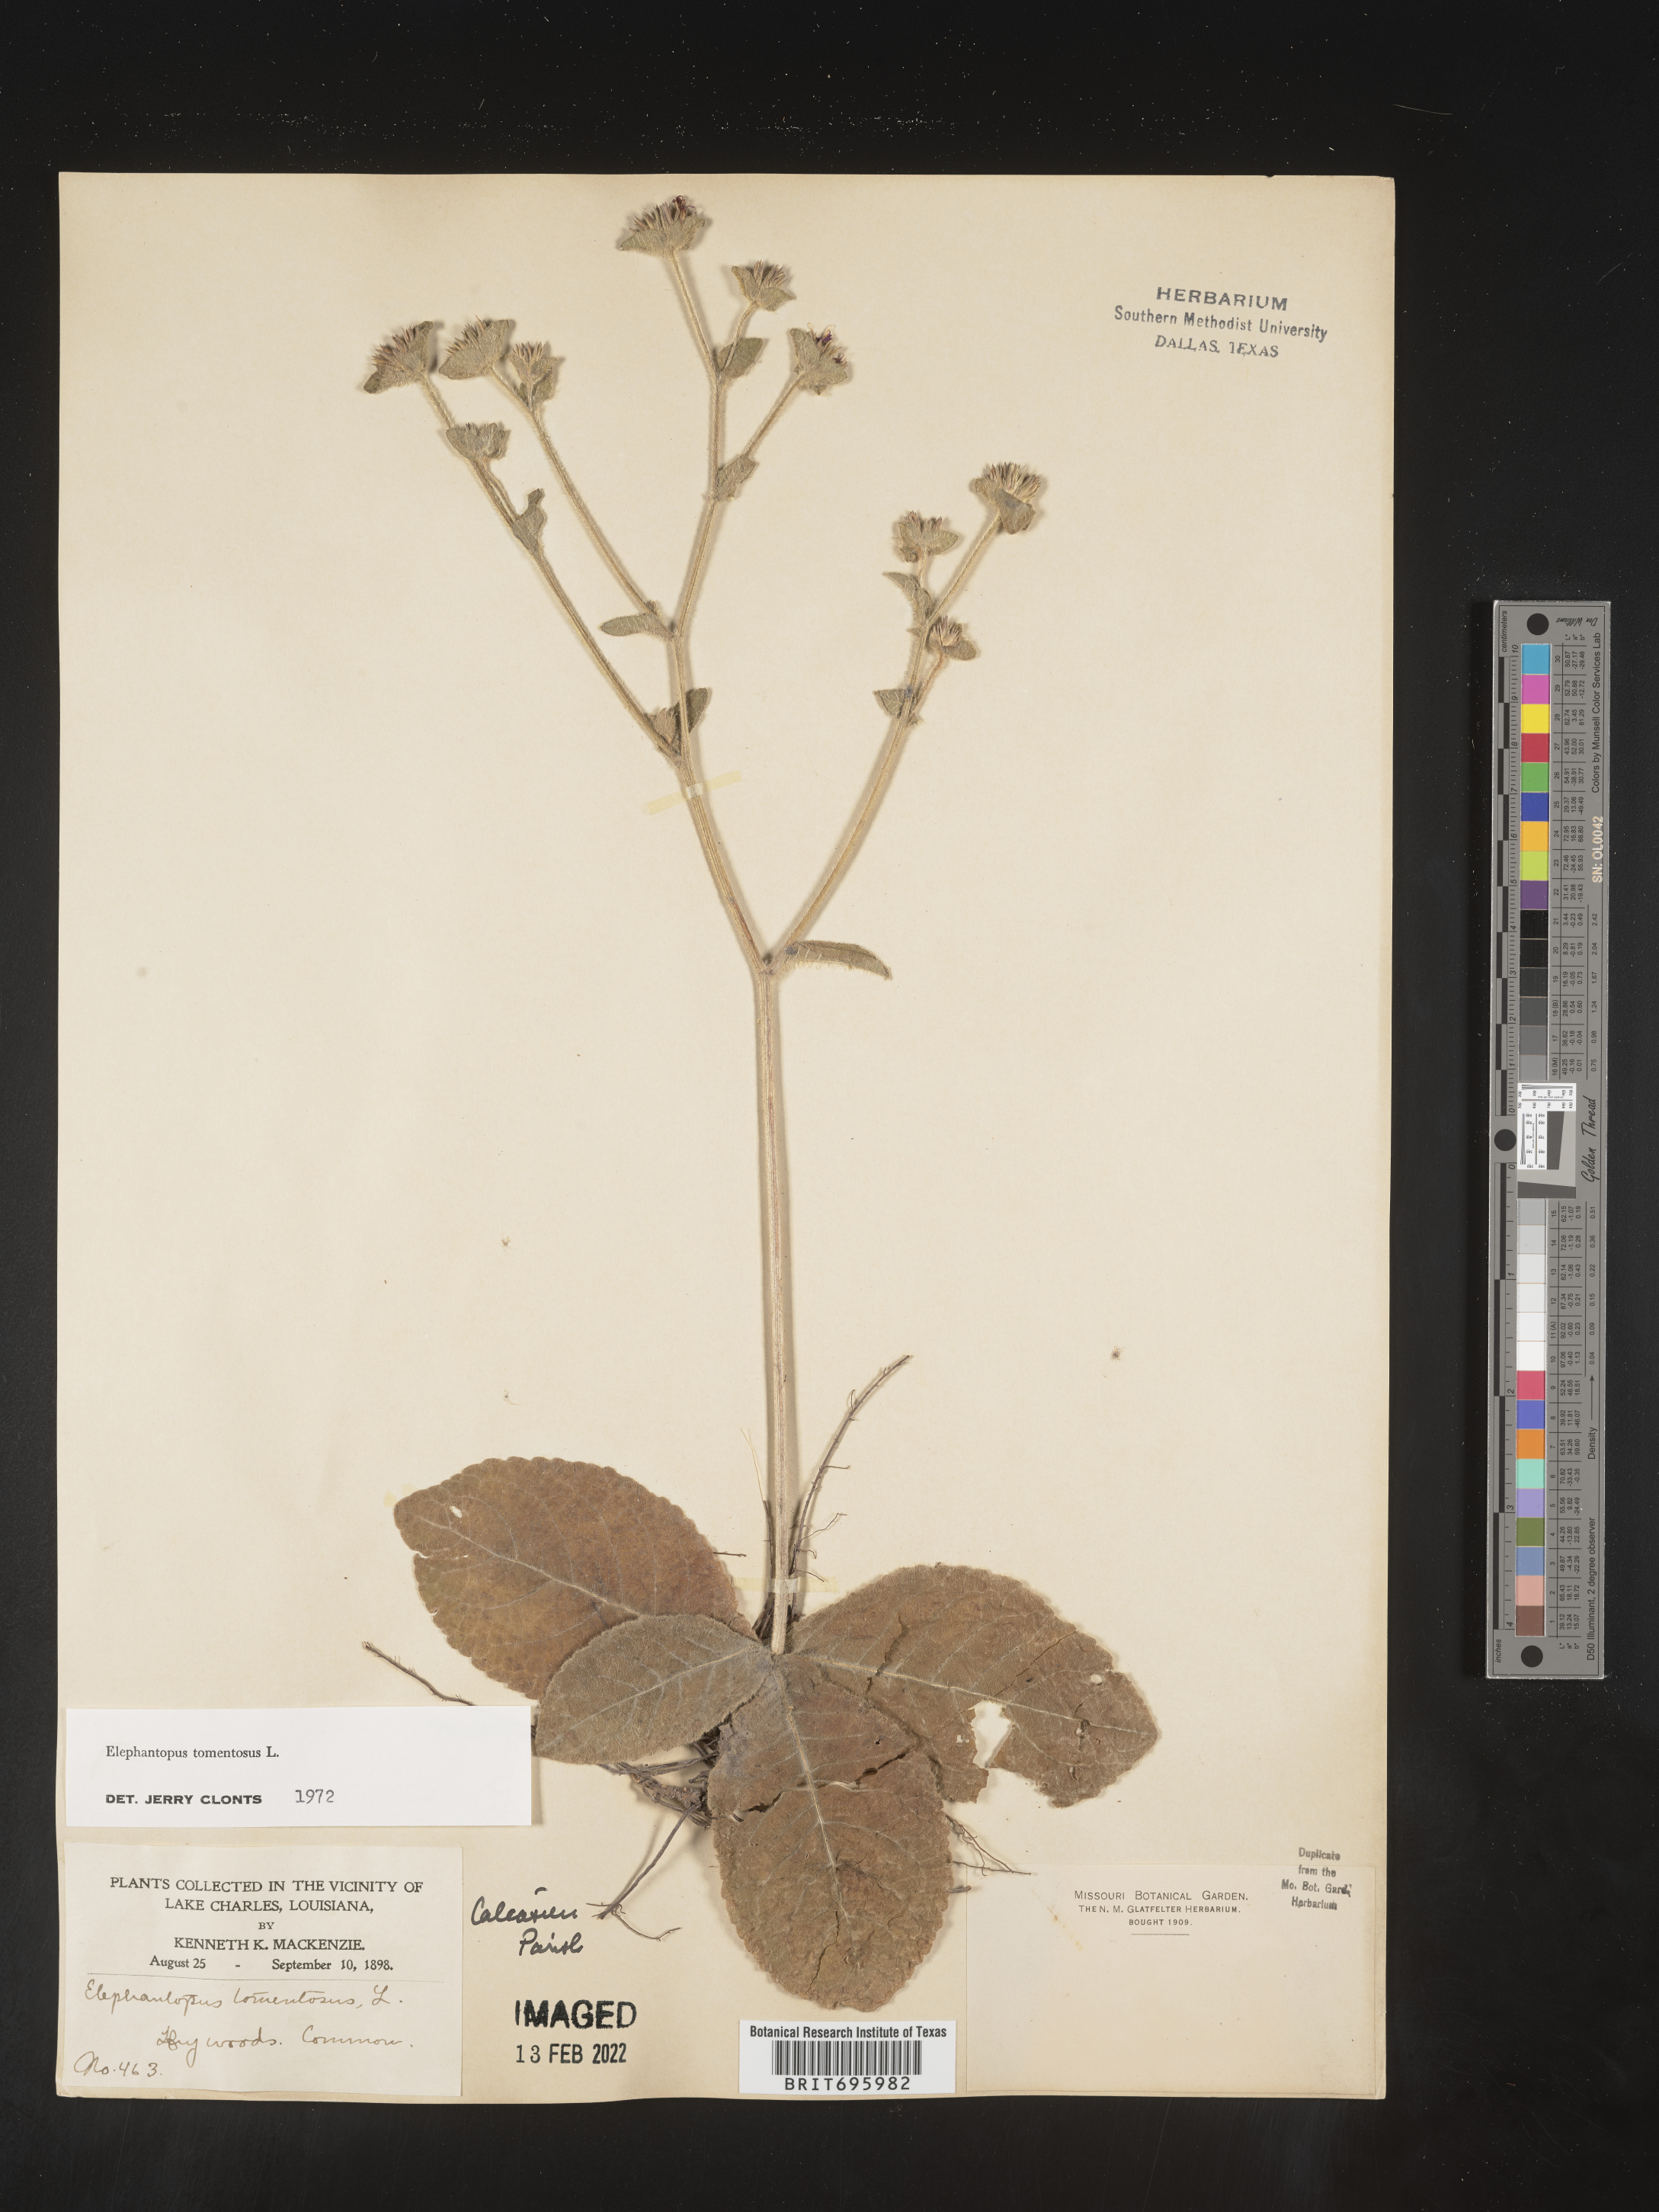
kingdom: Plantae
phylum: Tracheophyta
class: Magnoliopsida
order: Asterales
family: Asteraceae
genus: Elephantopus
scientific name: Elephantopus tomentosus
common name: Tobacco-weed
